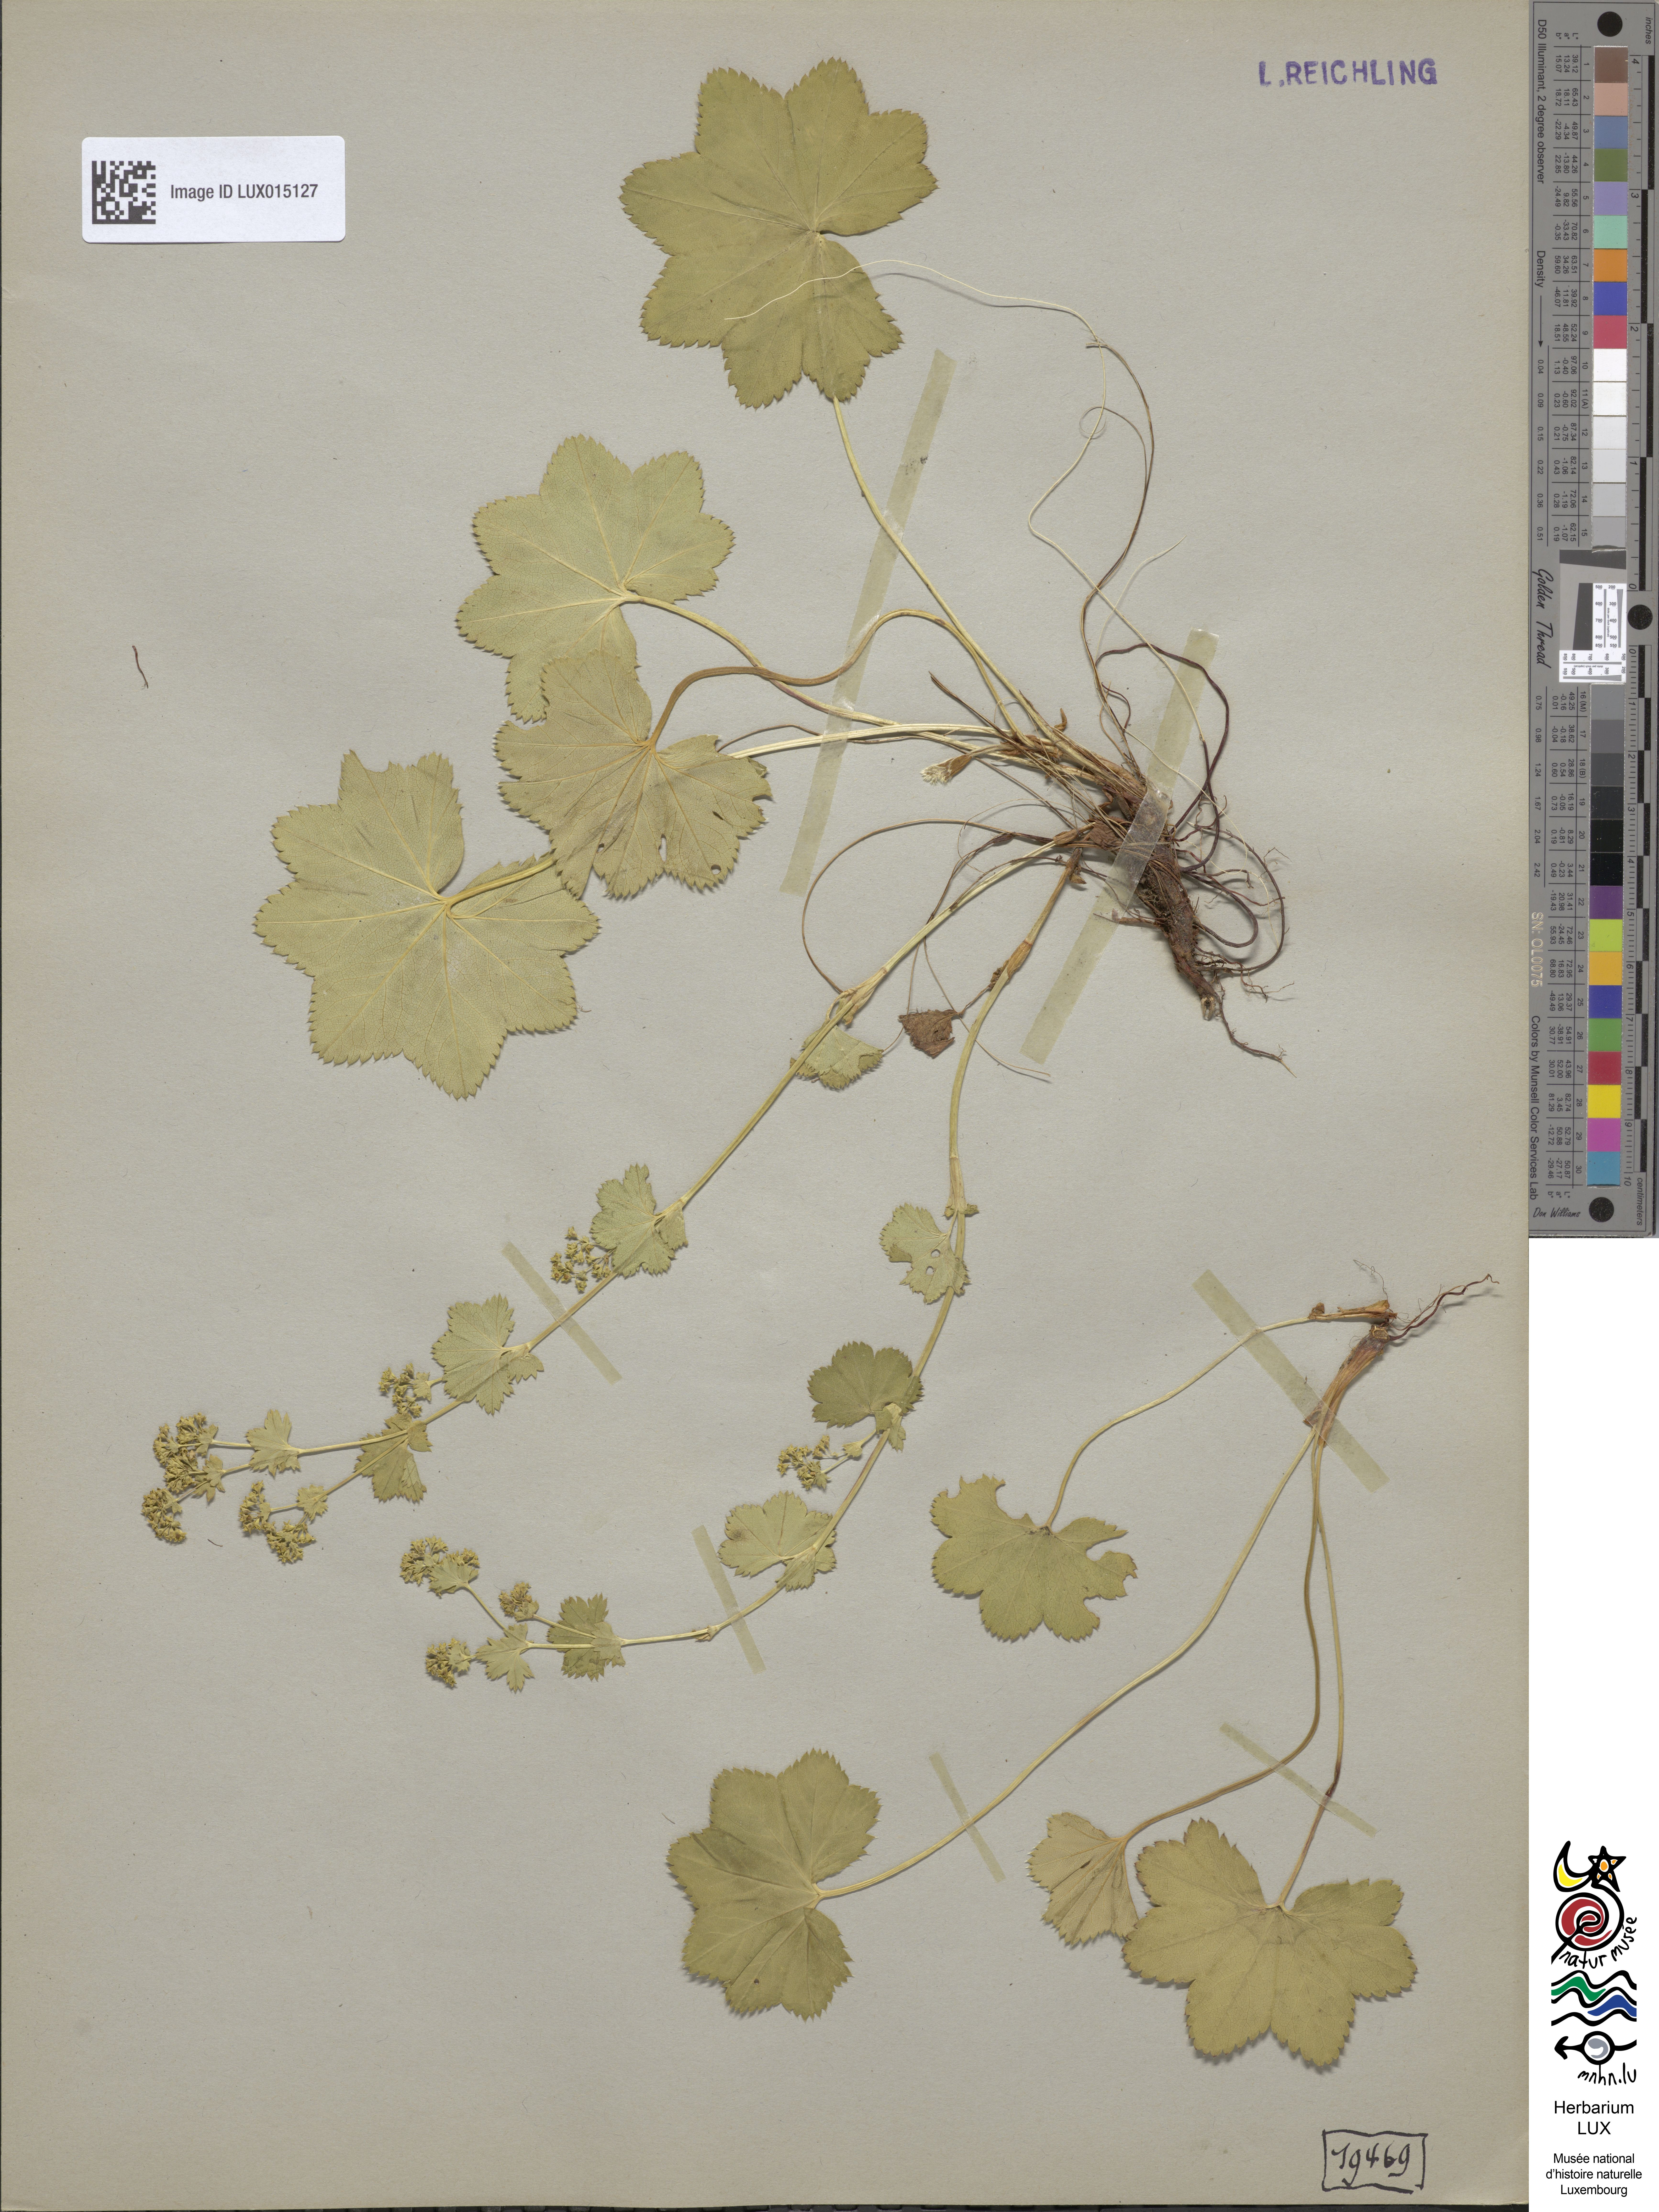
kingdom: Plantae
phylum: Tracheophyta
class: Magnoliopsida
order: Rosales
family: Rosaceae
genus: Alchemilla
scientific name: Alchemilla glabra
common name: Smooth lady's-mantle
